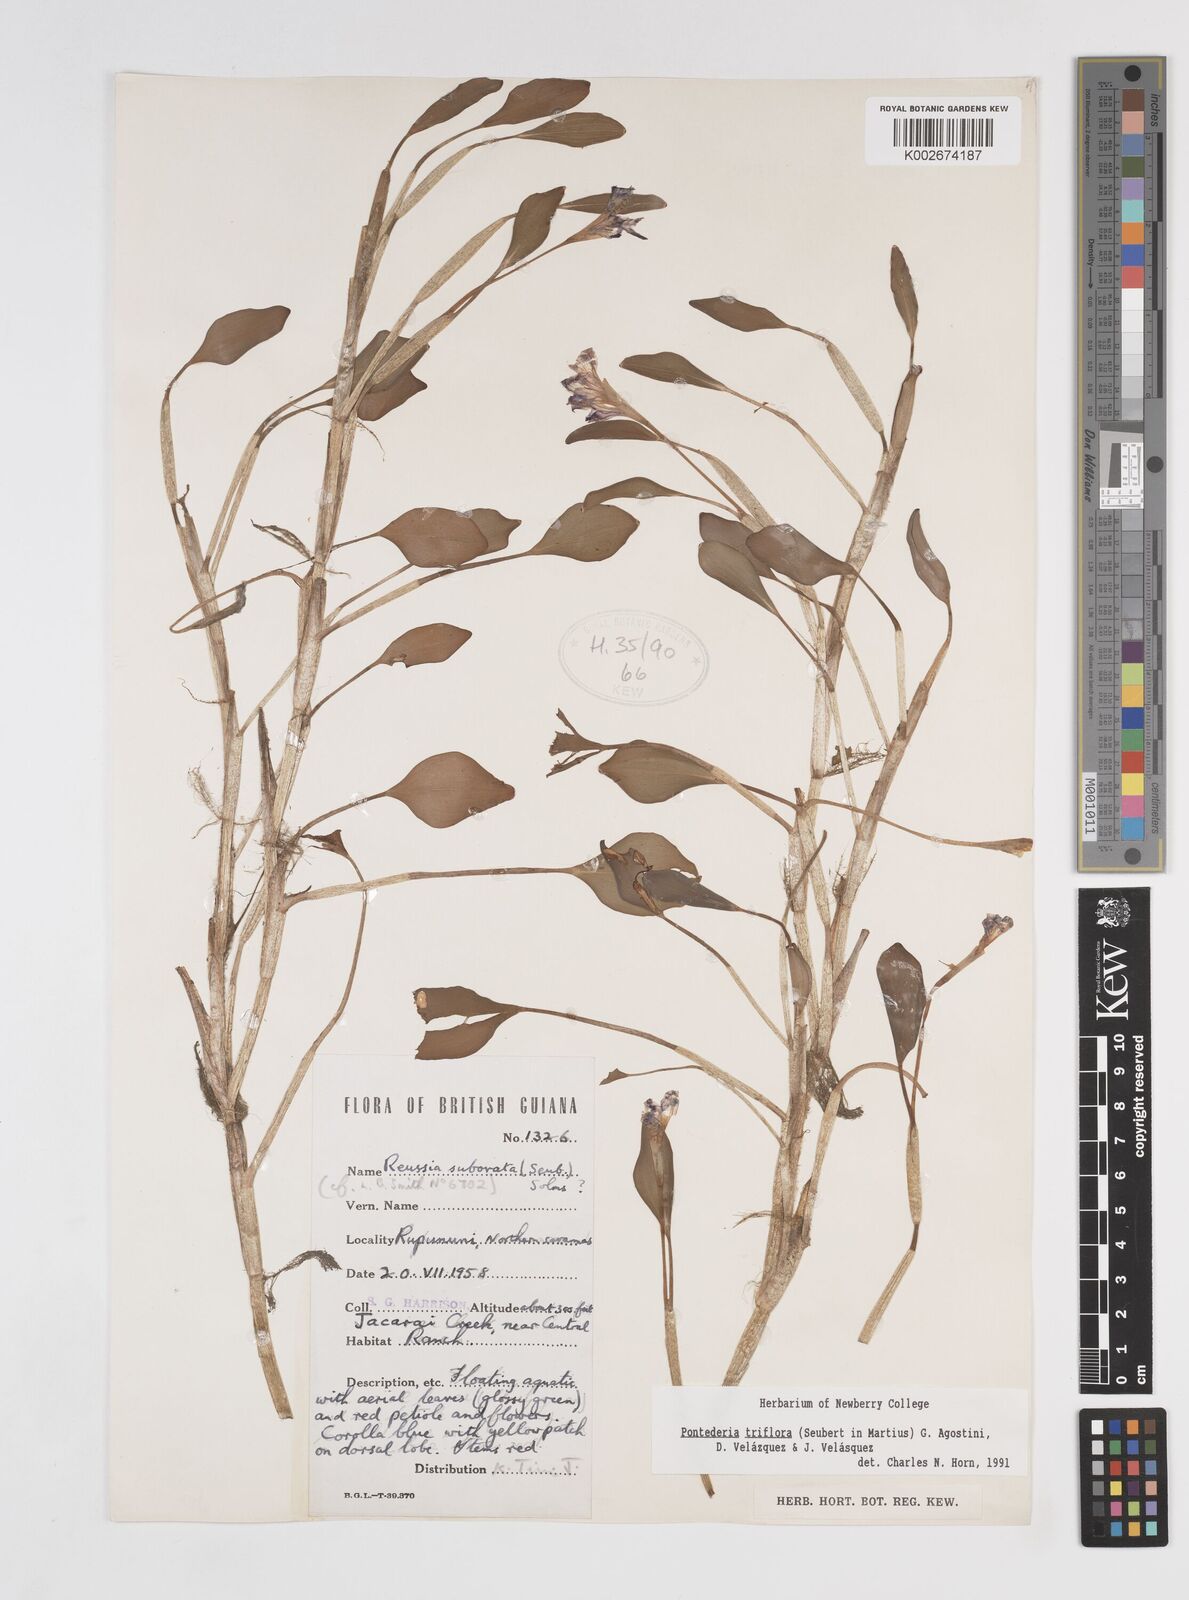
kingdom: Plantae
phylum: Tracheophyta
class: Liliopsida
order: Commelinales
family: Pontederiaceae
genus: Pontederia
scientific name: Pontederia triflora
